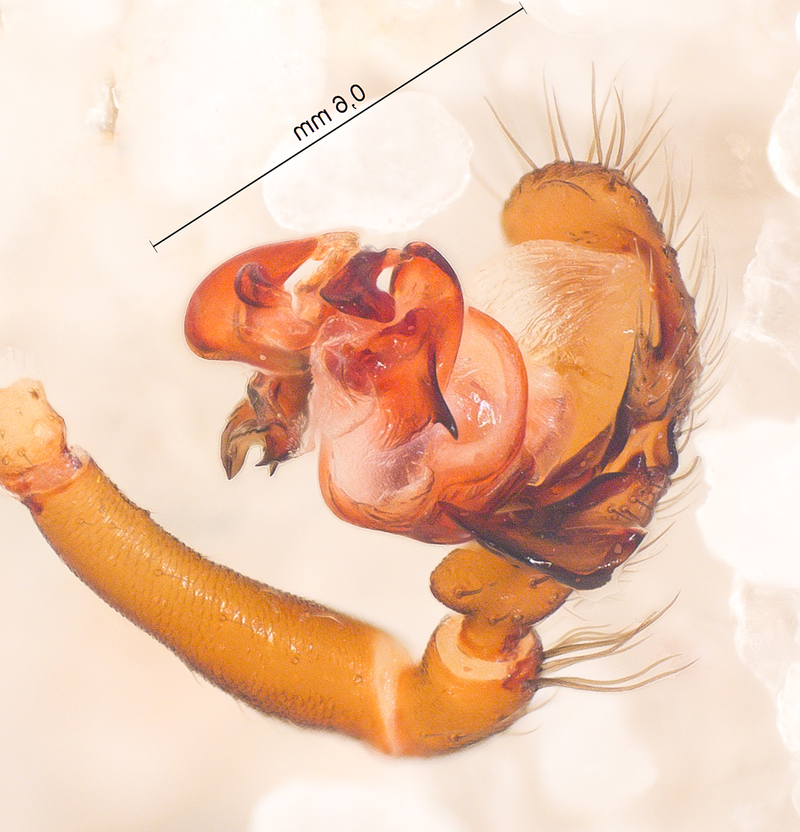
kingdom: Animalia
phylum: Arthropoda
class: Arachnida
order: Araneae
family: Linyphiidae
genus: Microneta
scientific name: Microneta viaria
